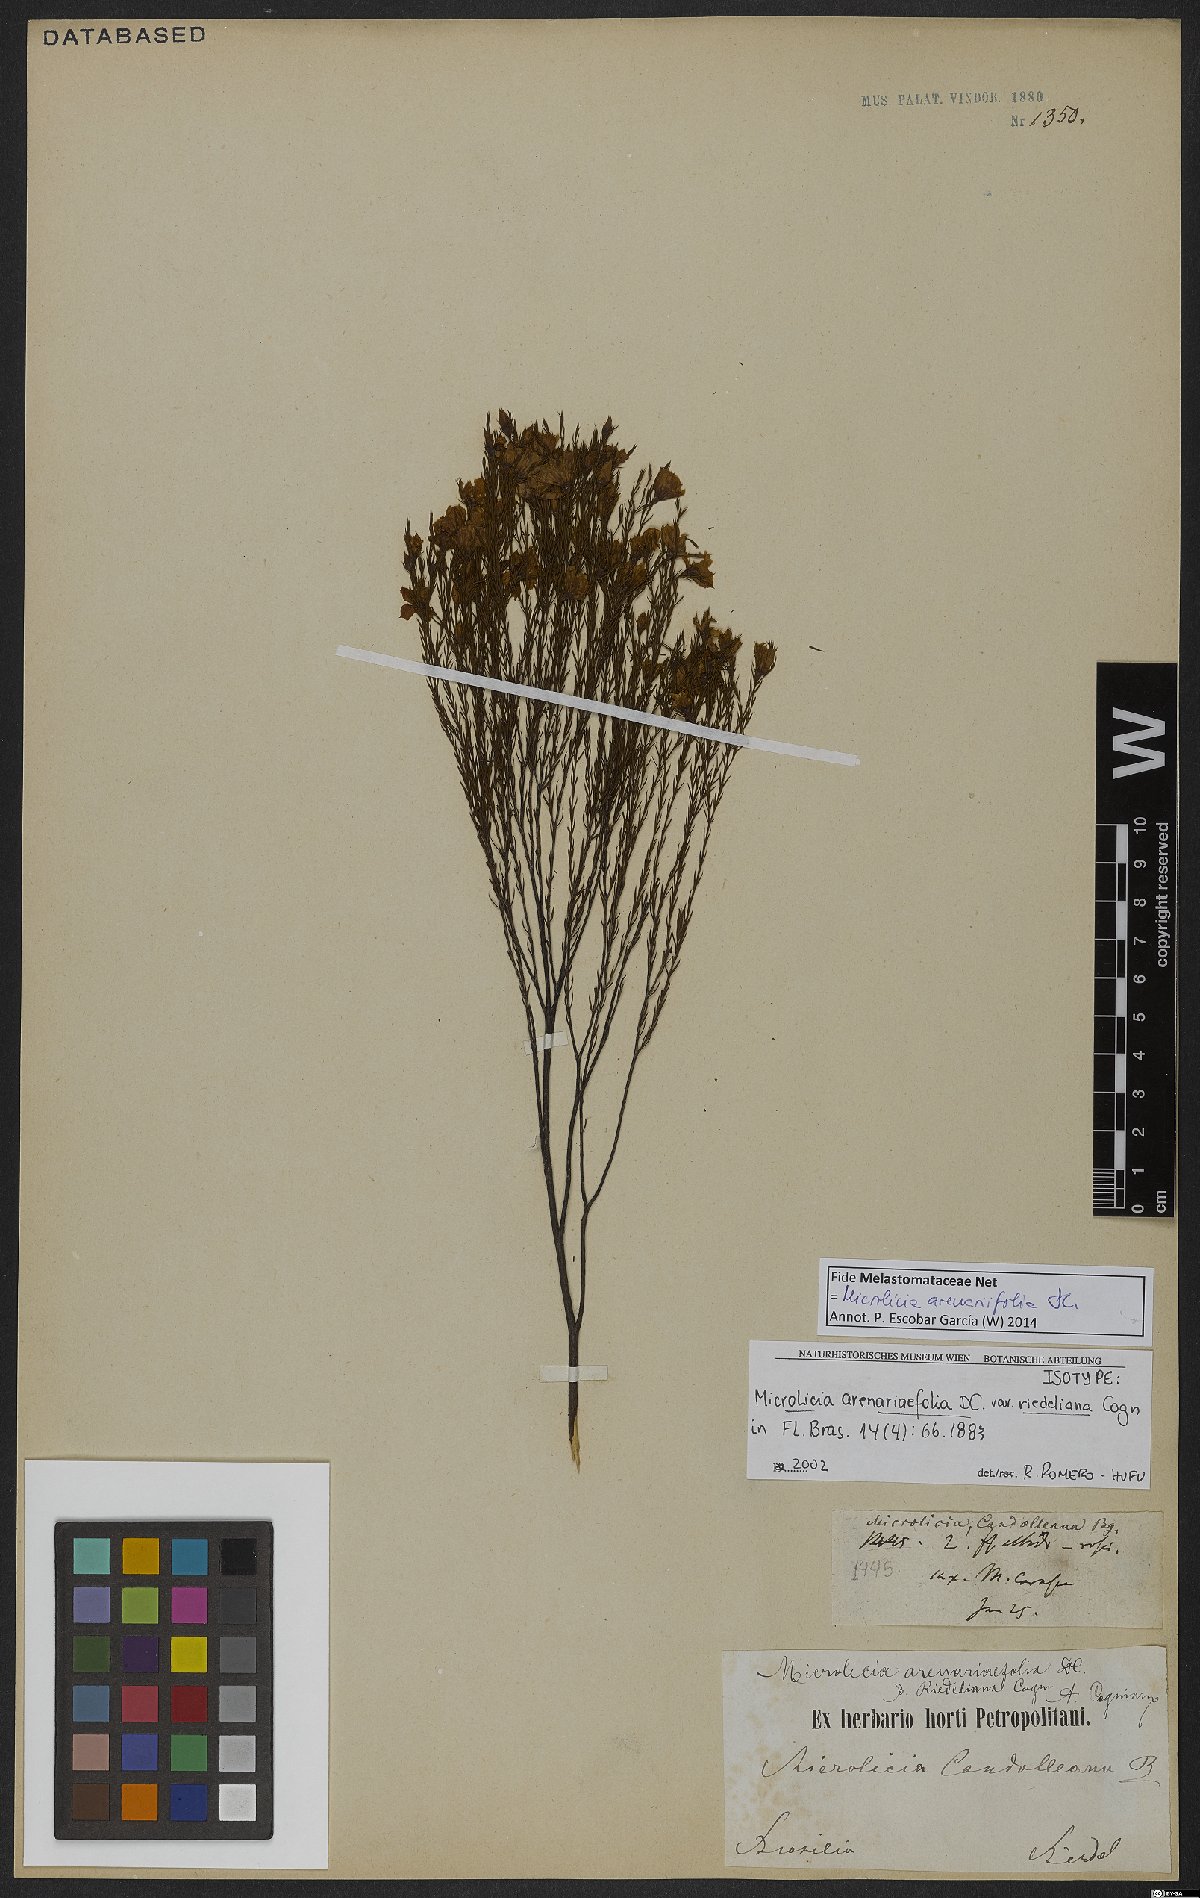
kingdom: Plantae
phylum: Tracheophyta
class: Magnoliopsida
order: Myrtales
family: Melastomataceae
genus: Microlicia
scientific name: Microlicia arenariifolia
